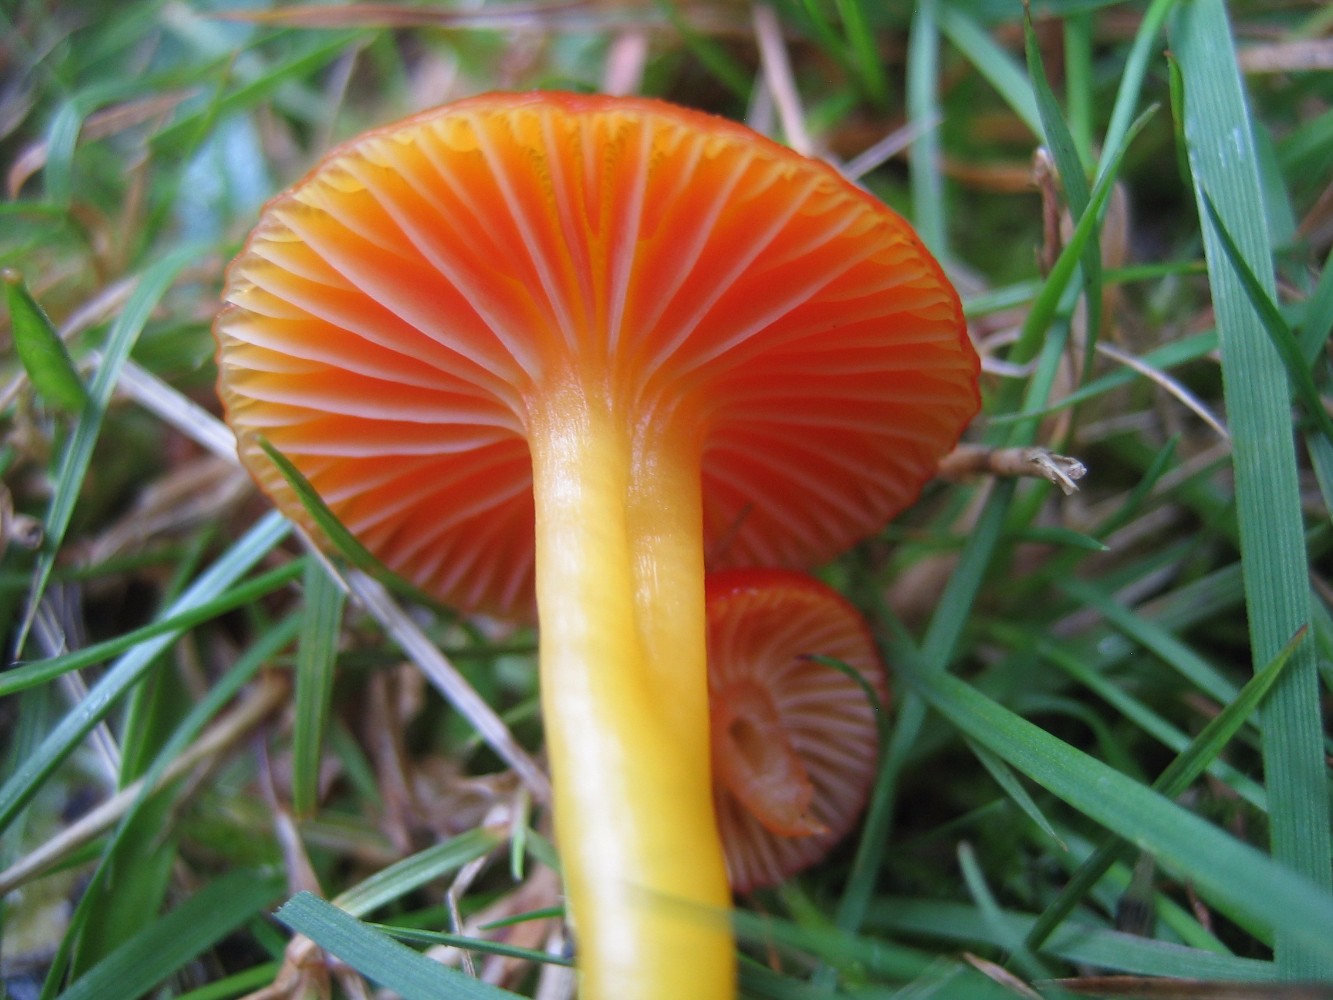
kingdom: Fungi
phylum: Basidiomycota
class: Agaricomycetes
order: Agaricales
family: Hygrophoraceae
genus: Hygrocybe
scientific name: Hygrocybe miniata
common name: mønje-vokshat
